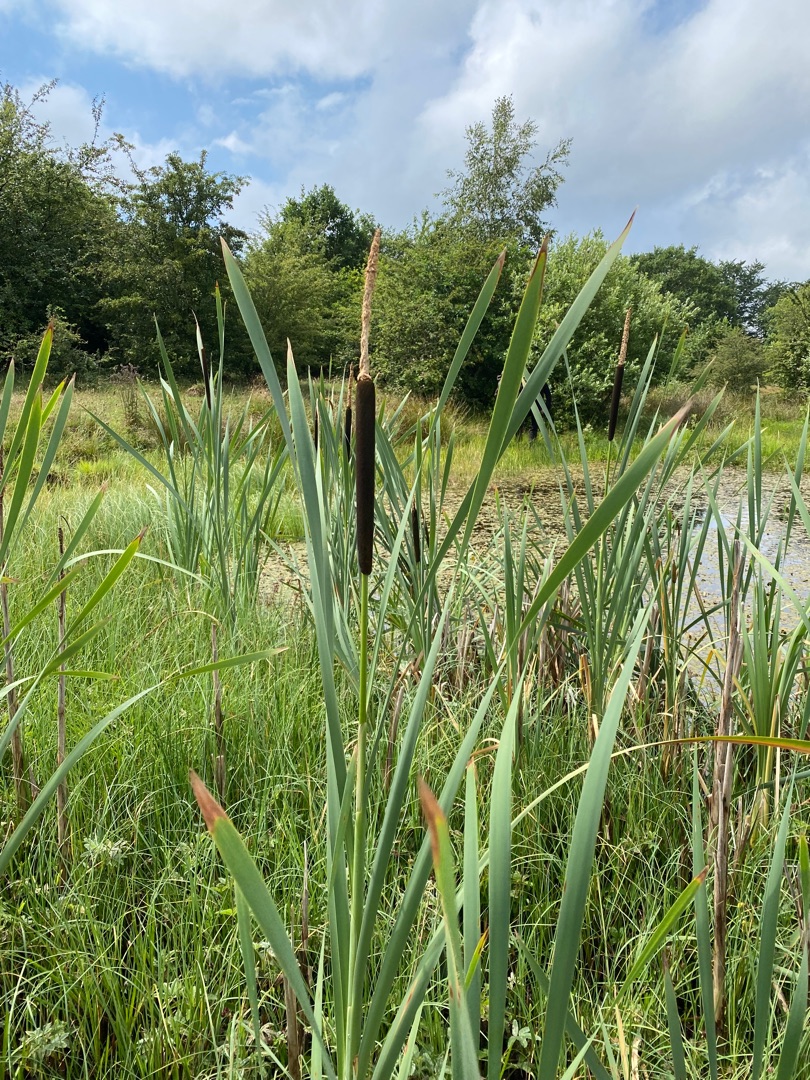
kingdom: Plantae
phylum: Tracheophyta
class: Liliopsida
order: Poales
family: Typhaceae
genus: Typha
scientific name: Typha latifolia
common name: Bredbladet dunhammer
